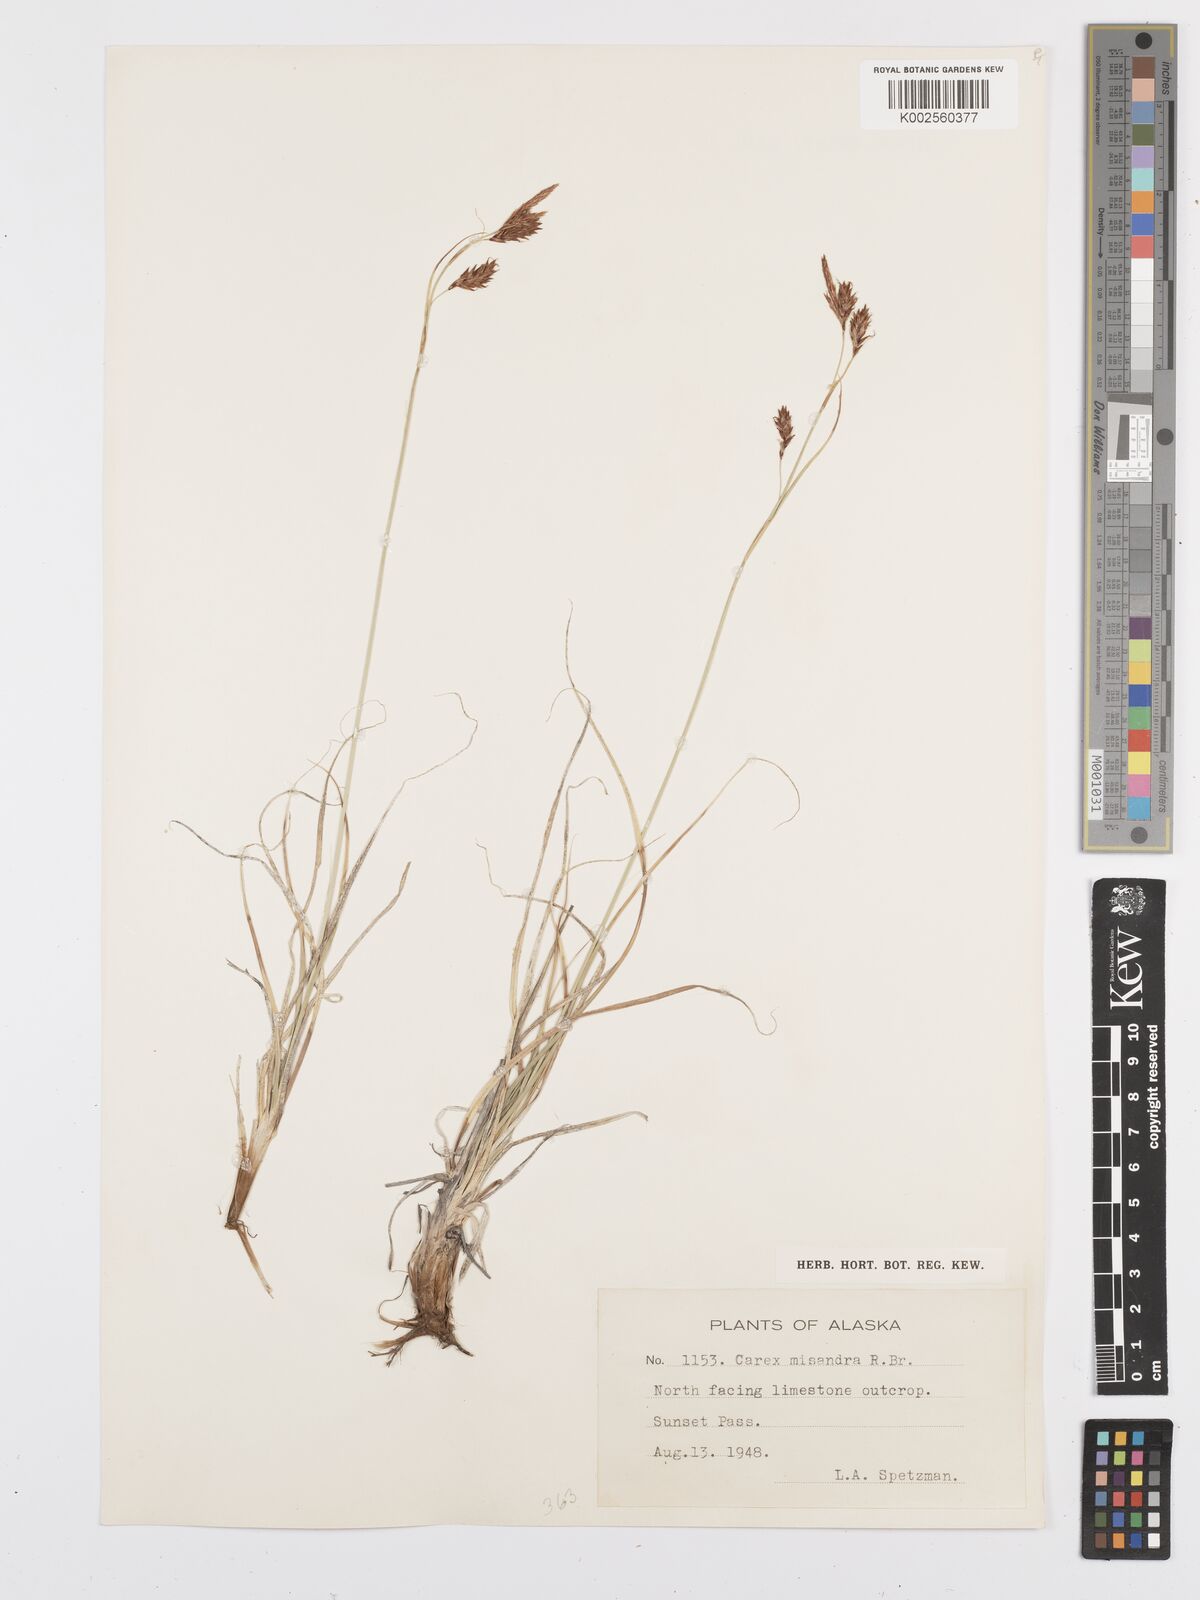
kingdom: Plantae
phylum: Tracheophyta
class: Liliopsida
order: Poales
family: Cyperaceae
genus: Carex
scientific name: Carex fuliginosa
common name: Few-flowered sedge
